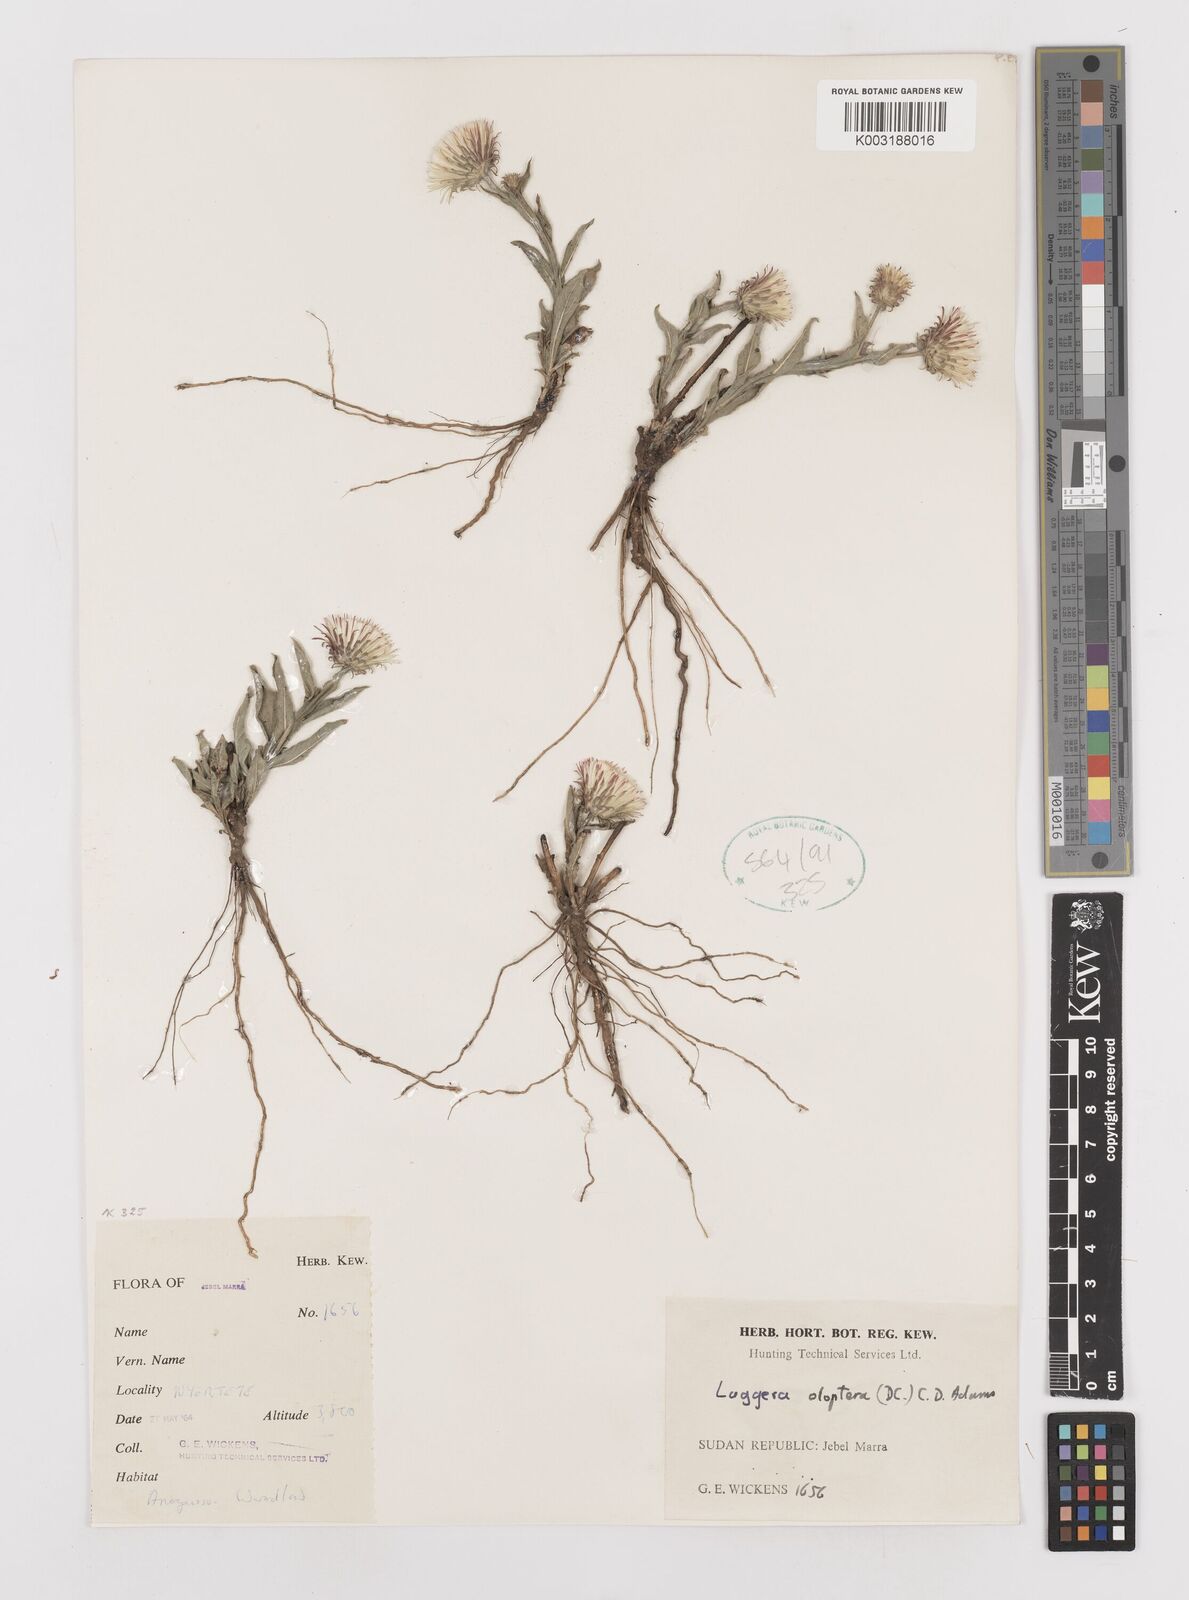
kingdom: Plantae
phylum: Tracheophyta
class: Magnoliopsida
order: Asterales
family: Asteraceae
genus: Laggera
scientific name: Laggera oloptera
